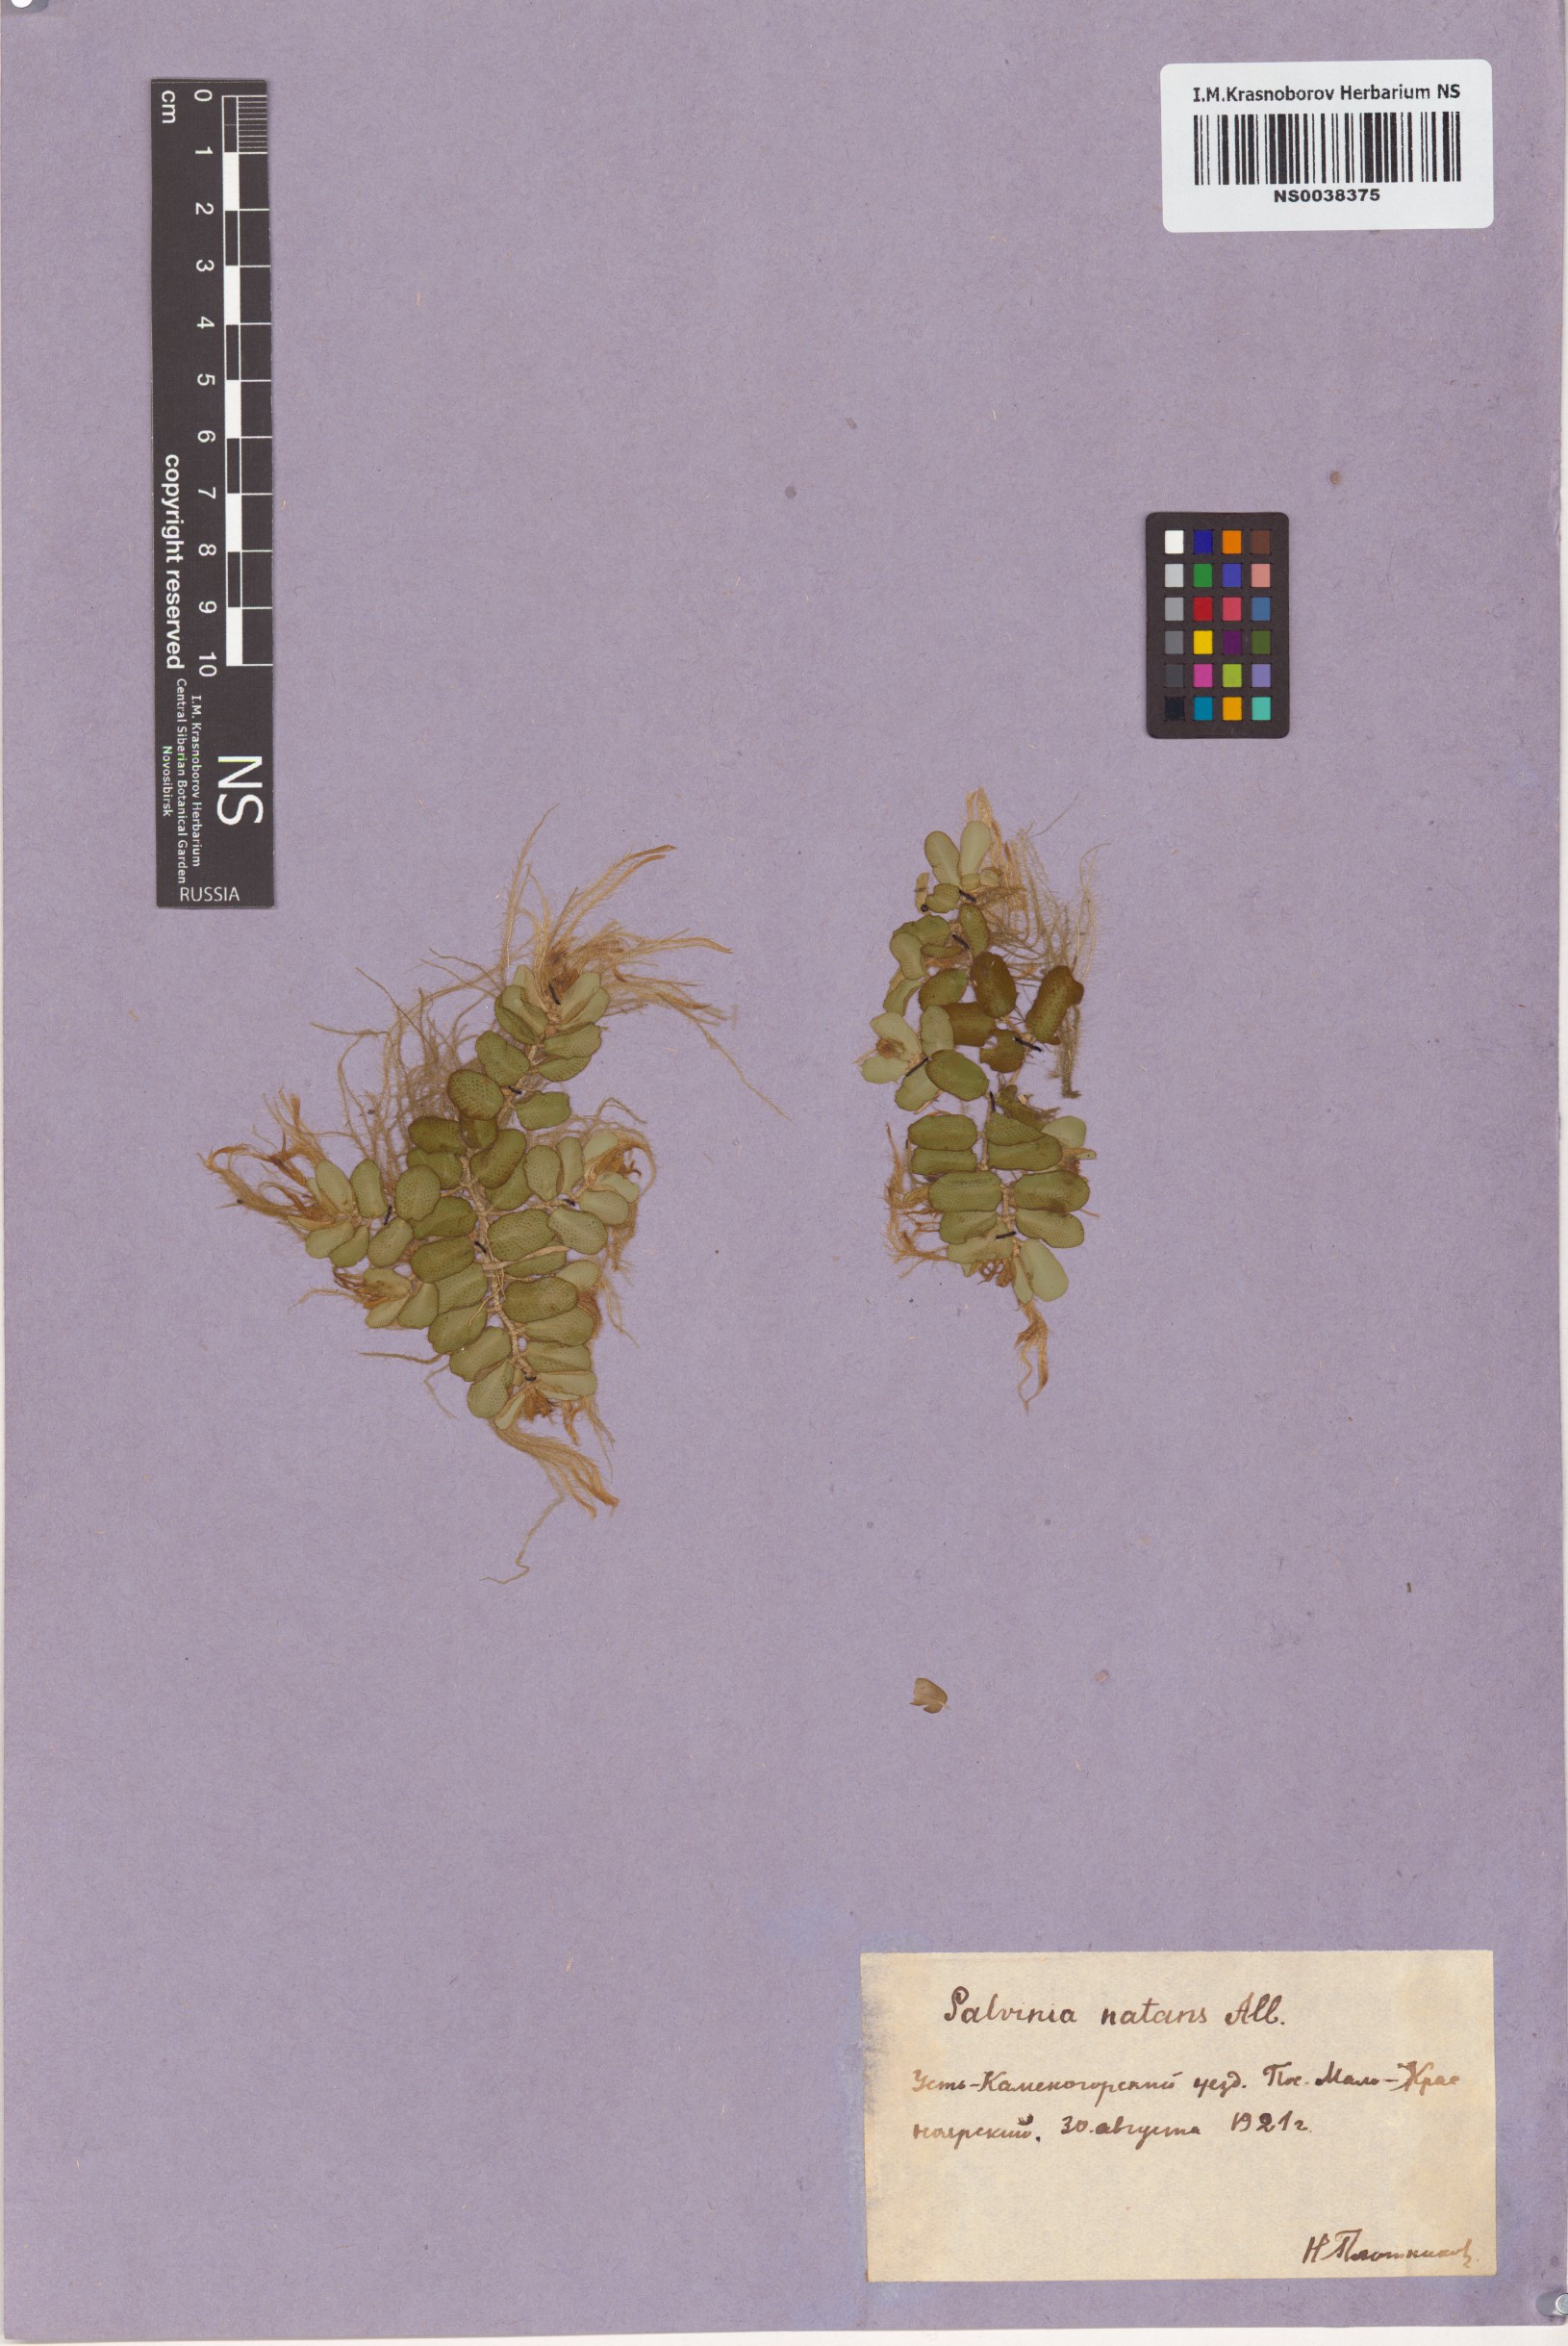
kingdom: Plantae
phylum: Tracheophyta
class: Polypodiopsida
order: Salviniales
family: Salviniaceae
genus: Salvinia
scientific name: Salvinia natans
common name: Floating fern
